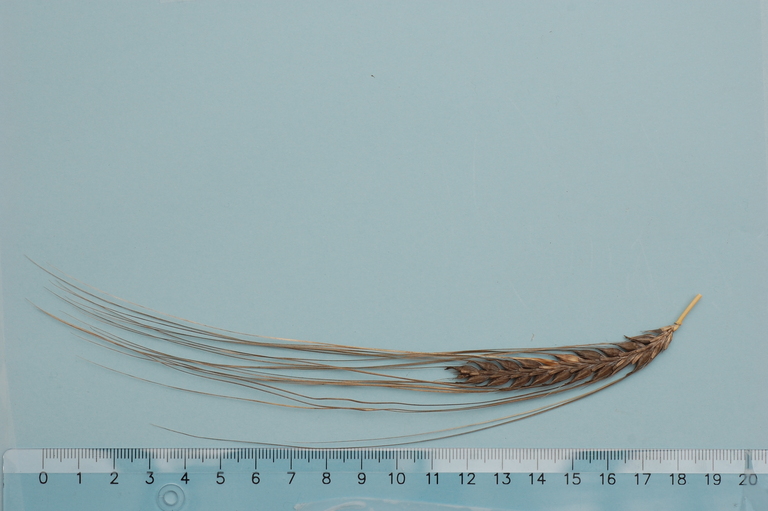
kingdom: Plantae
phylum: Tracheophyta
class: Liliopsida
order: Poales
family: Poaceae
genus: Hordeum
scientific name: Hordeum vulgare
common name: Common barley
